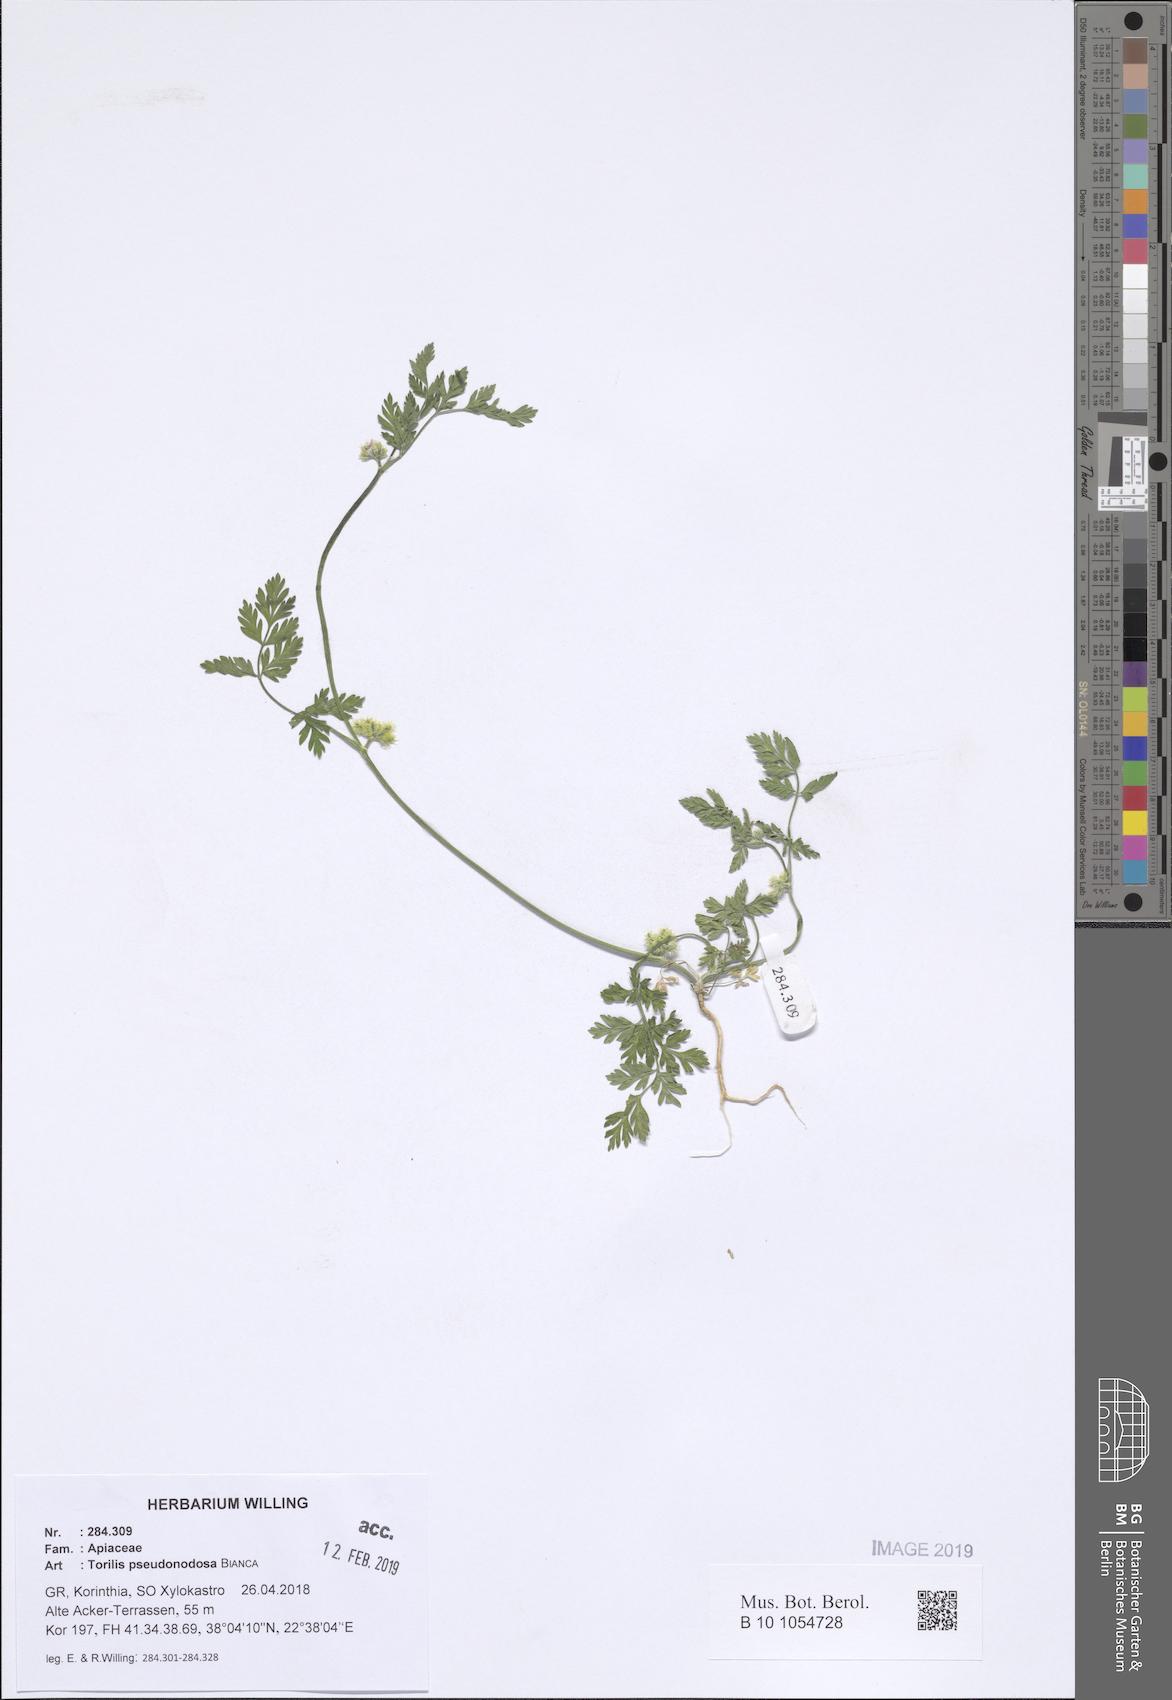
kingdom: Plantae
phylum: Tracheophyta
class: Magnoliopsida
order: Apiales
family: Apiaceae
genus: Torilis
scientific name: Torilis pseudonodosa
